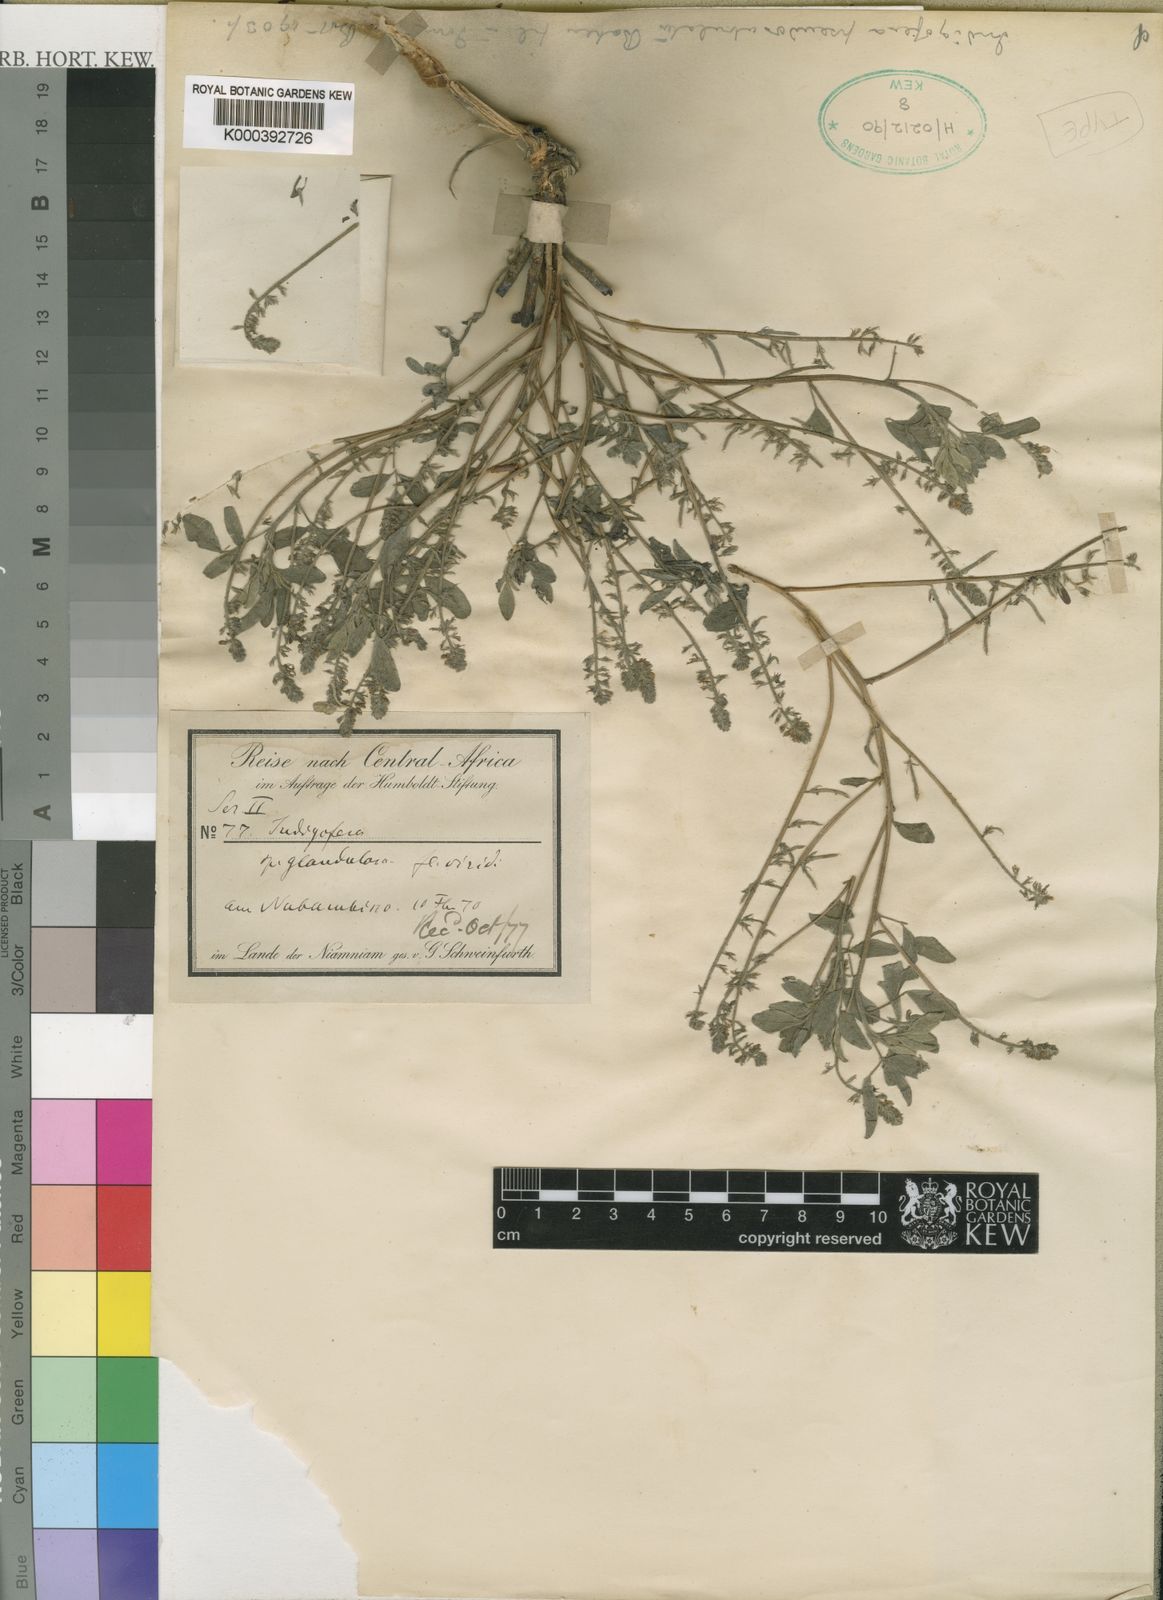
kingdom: Plantae
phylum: Tracheophyta
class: Magnoliopsida
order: Fabales
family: Fabaceae
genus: Indigofera
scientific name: Indigofera pseudosubulata
